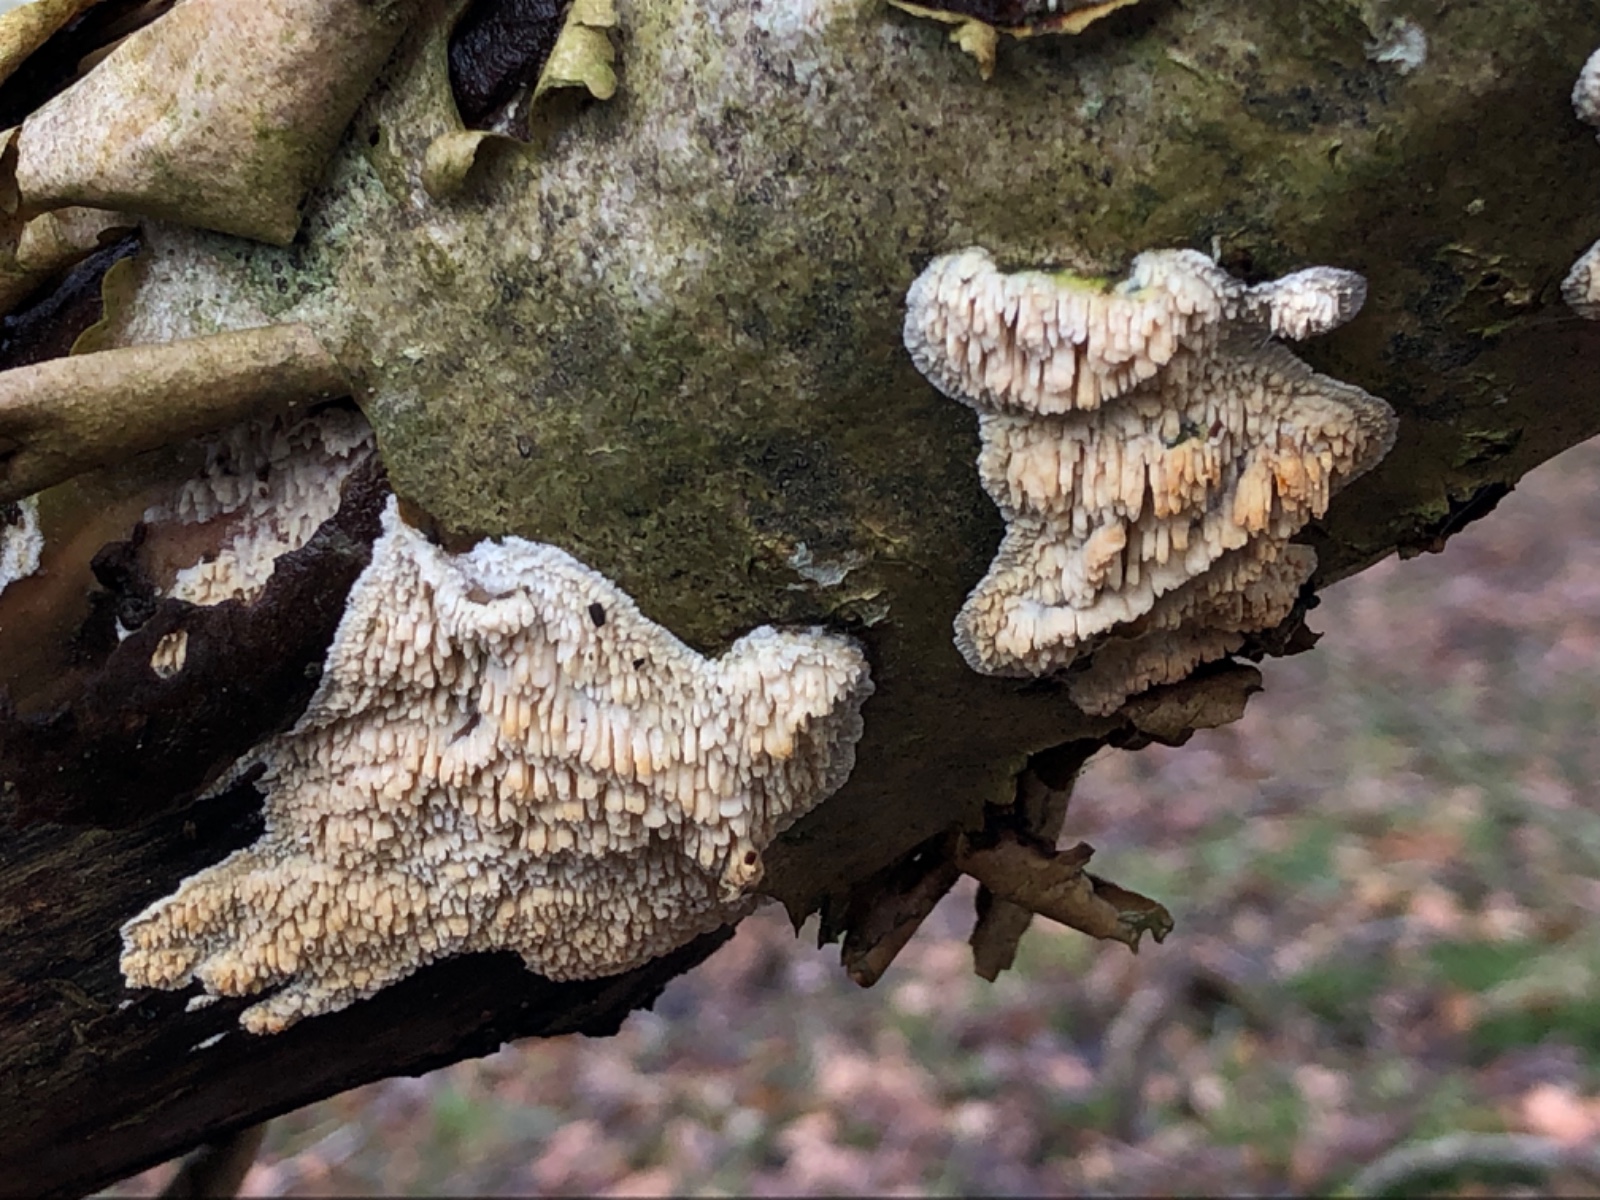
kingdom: Fungi
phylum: Basidiomycota
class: Agaricomycetes
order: Hymenochaetales
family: Schizoporaceae
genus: Xylodon
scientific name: Xylodon radula
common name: grovtandet kalkskind
